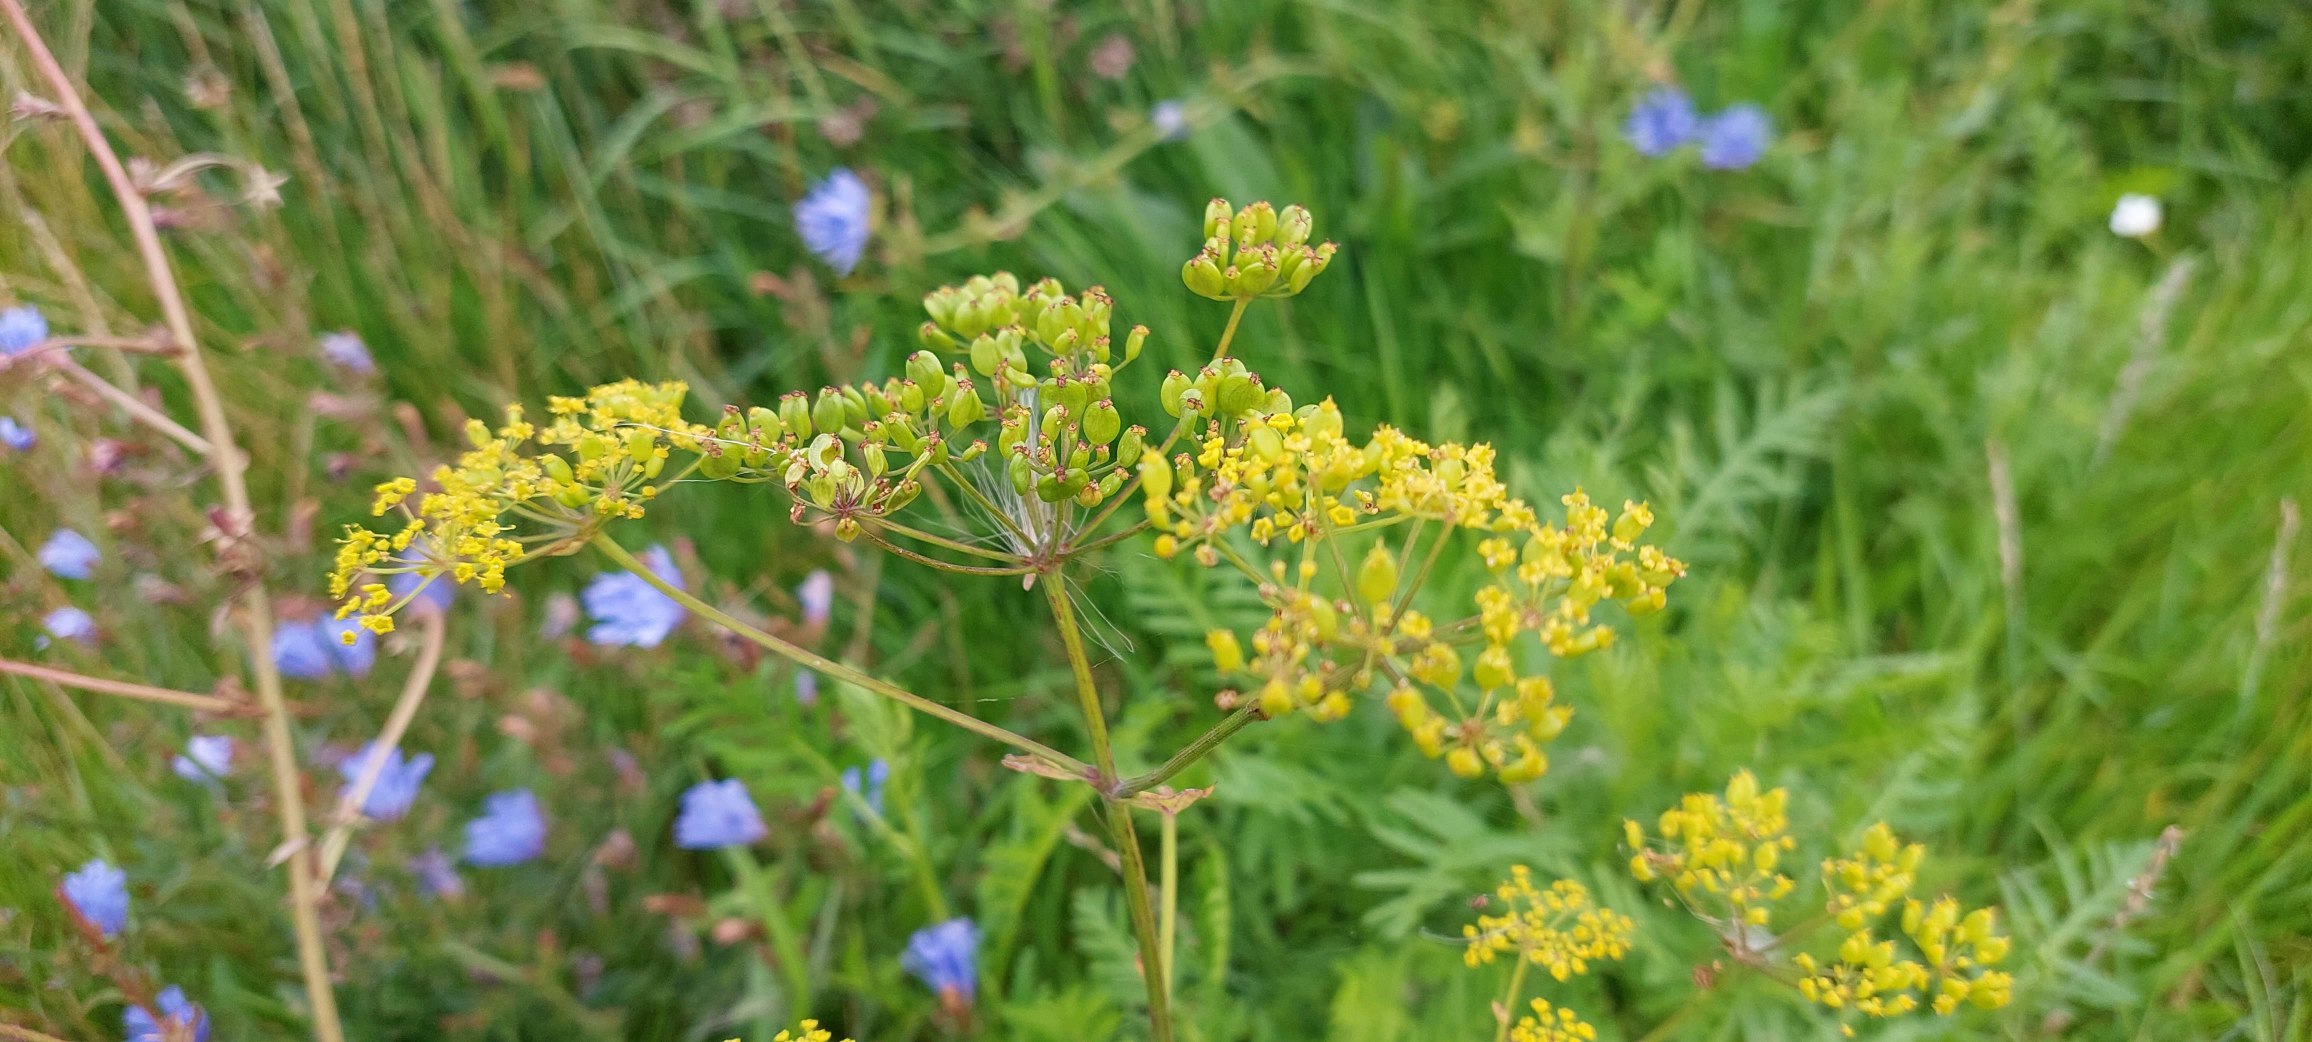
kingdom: Plantae
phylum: Tracheophyta
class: Magnoliopsida
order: Apiales
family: Apiaceae
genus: Pastinaca
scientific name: Pastinaca sativa
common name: Pastinak
